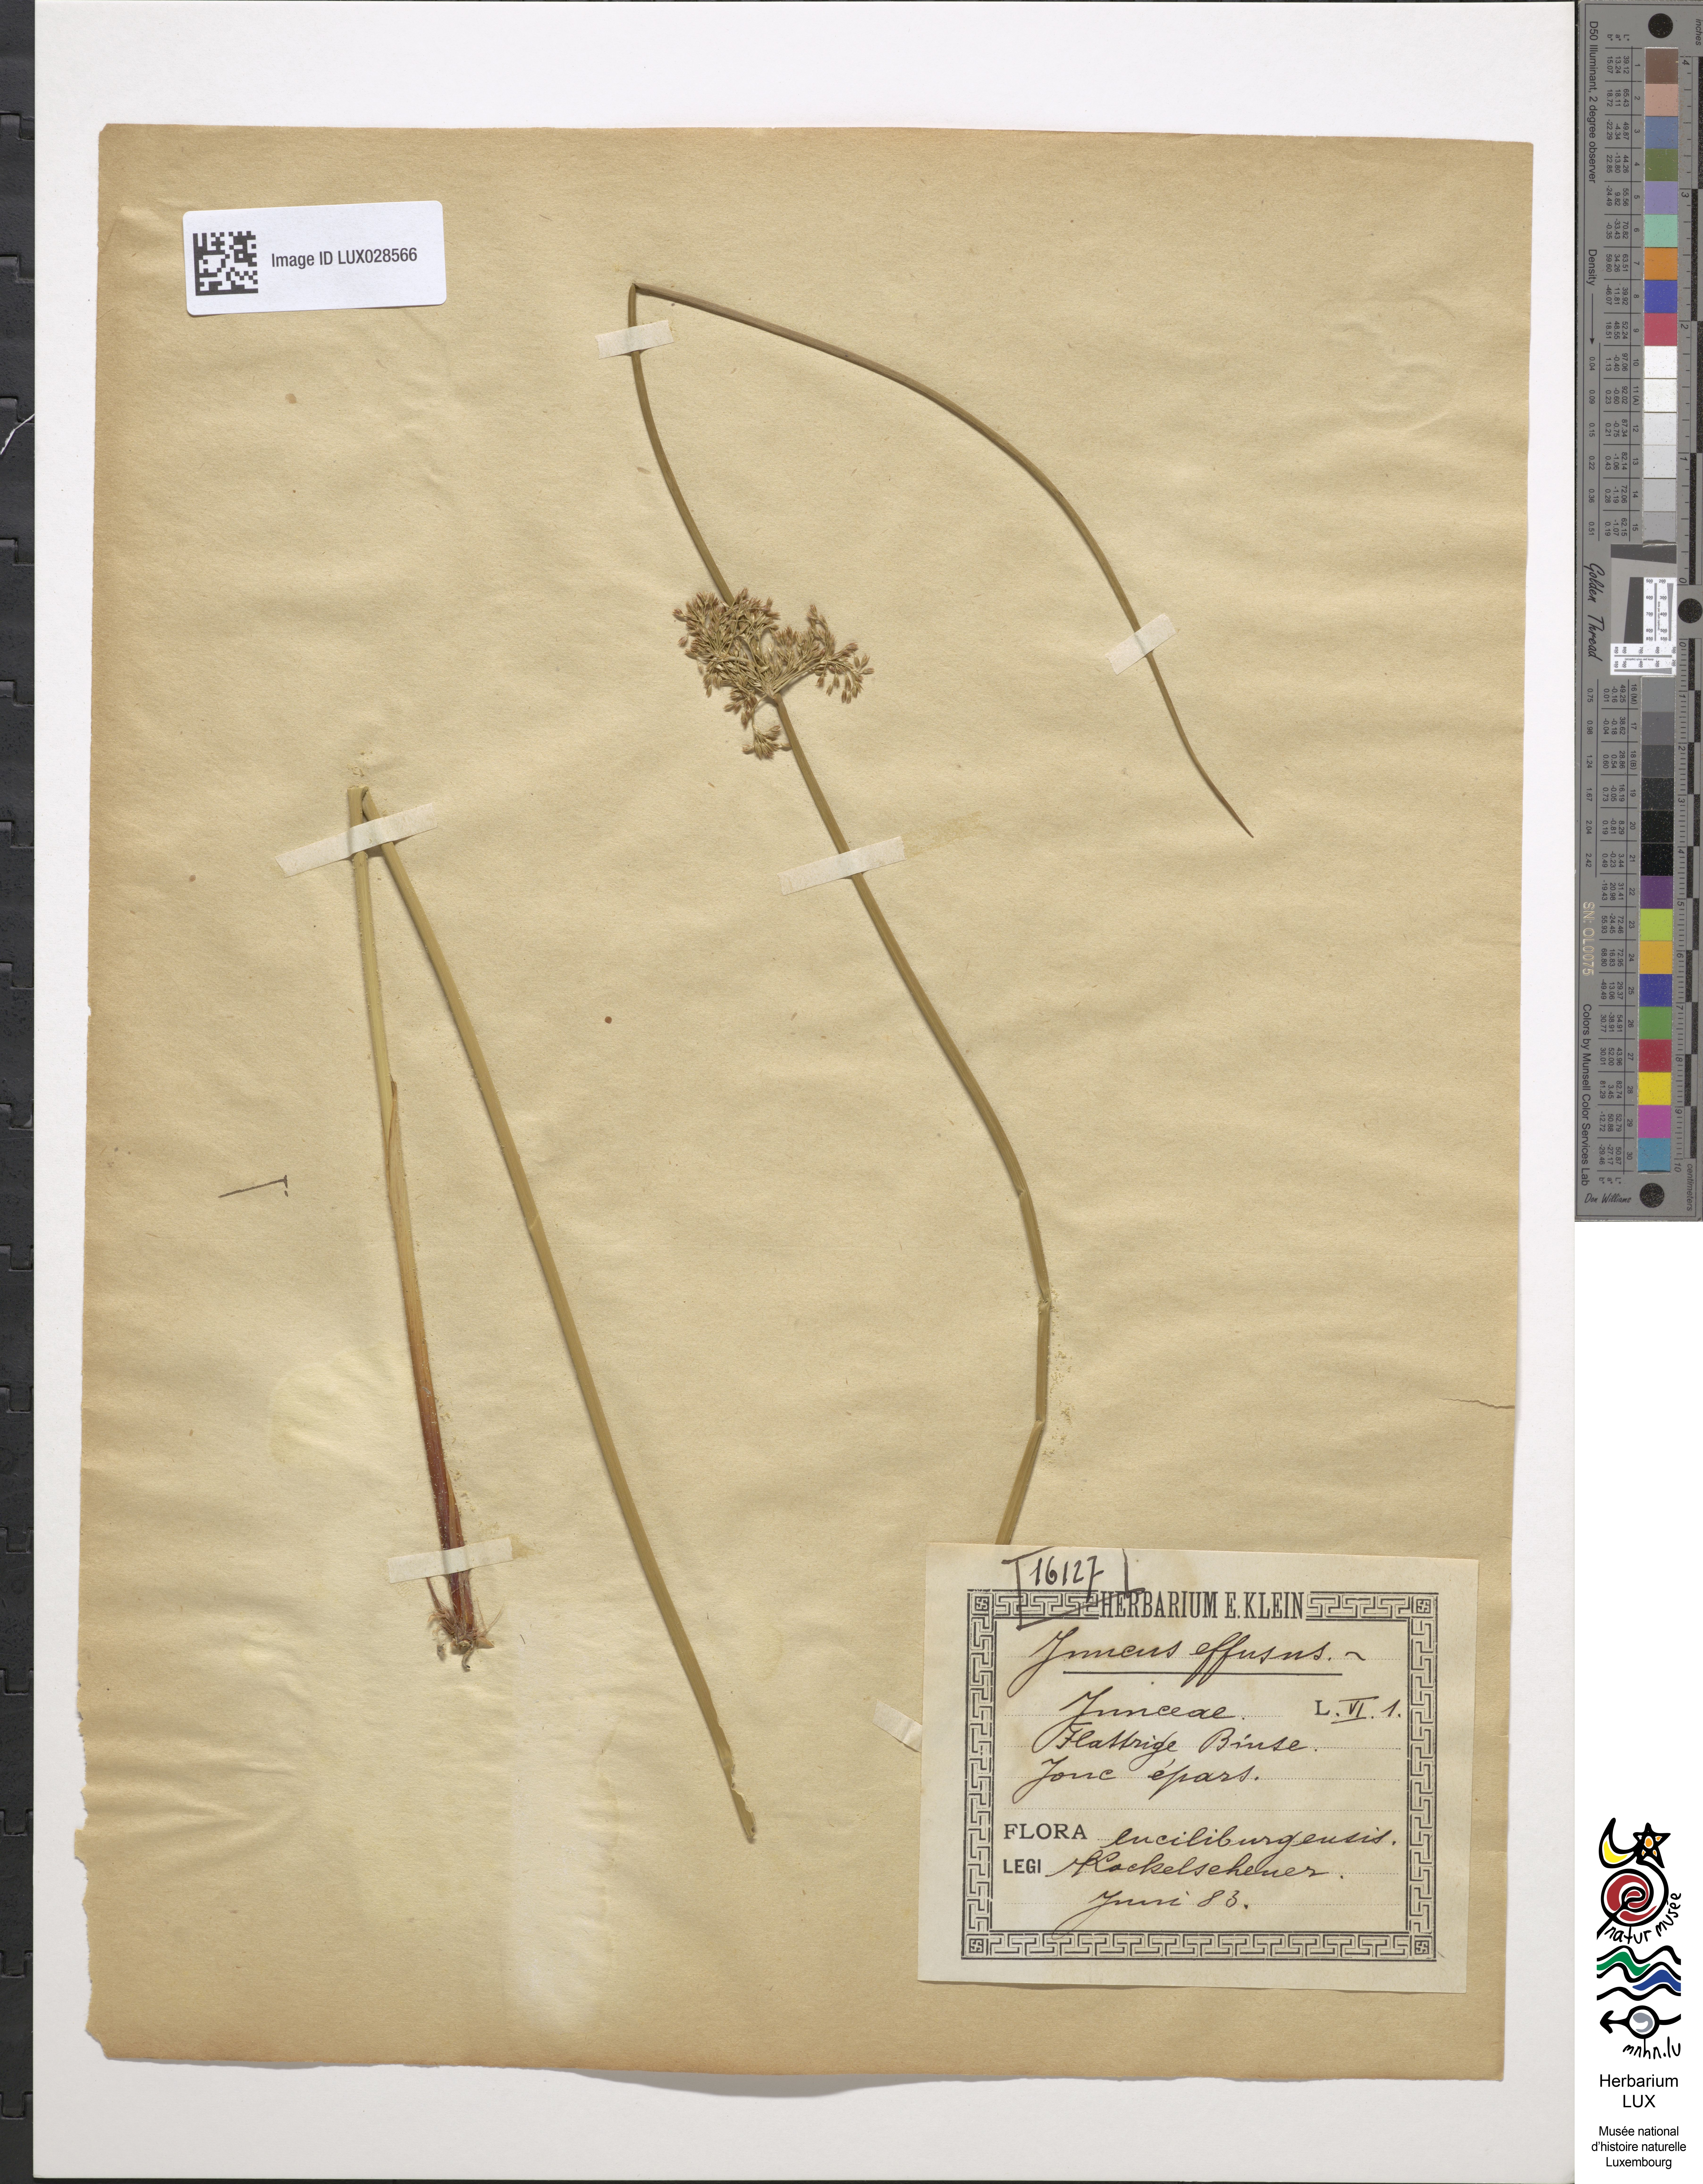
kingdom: Plantae
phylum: Tracheophyta
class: Liliopsida
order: Poales
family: Juncaceae
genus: Juncus
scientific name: Juncus effusus
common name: Soft rush
